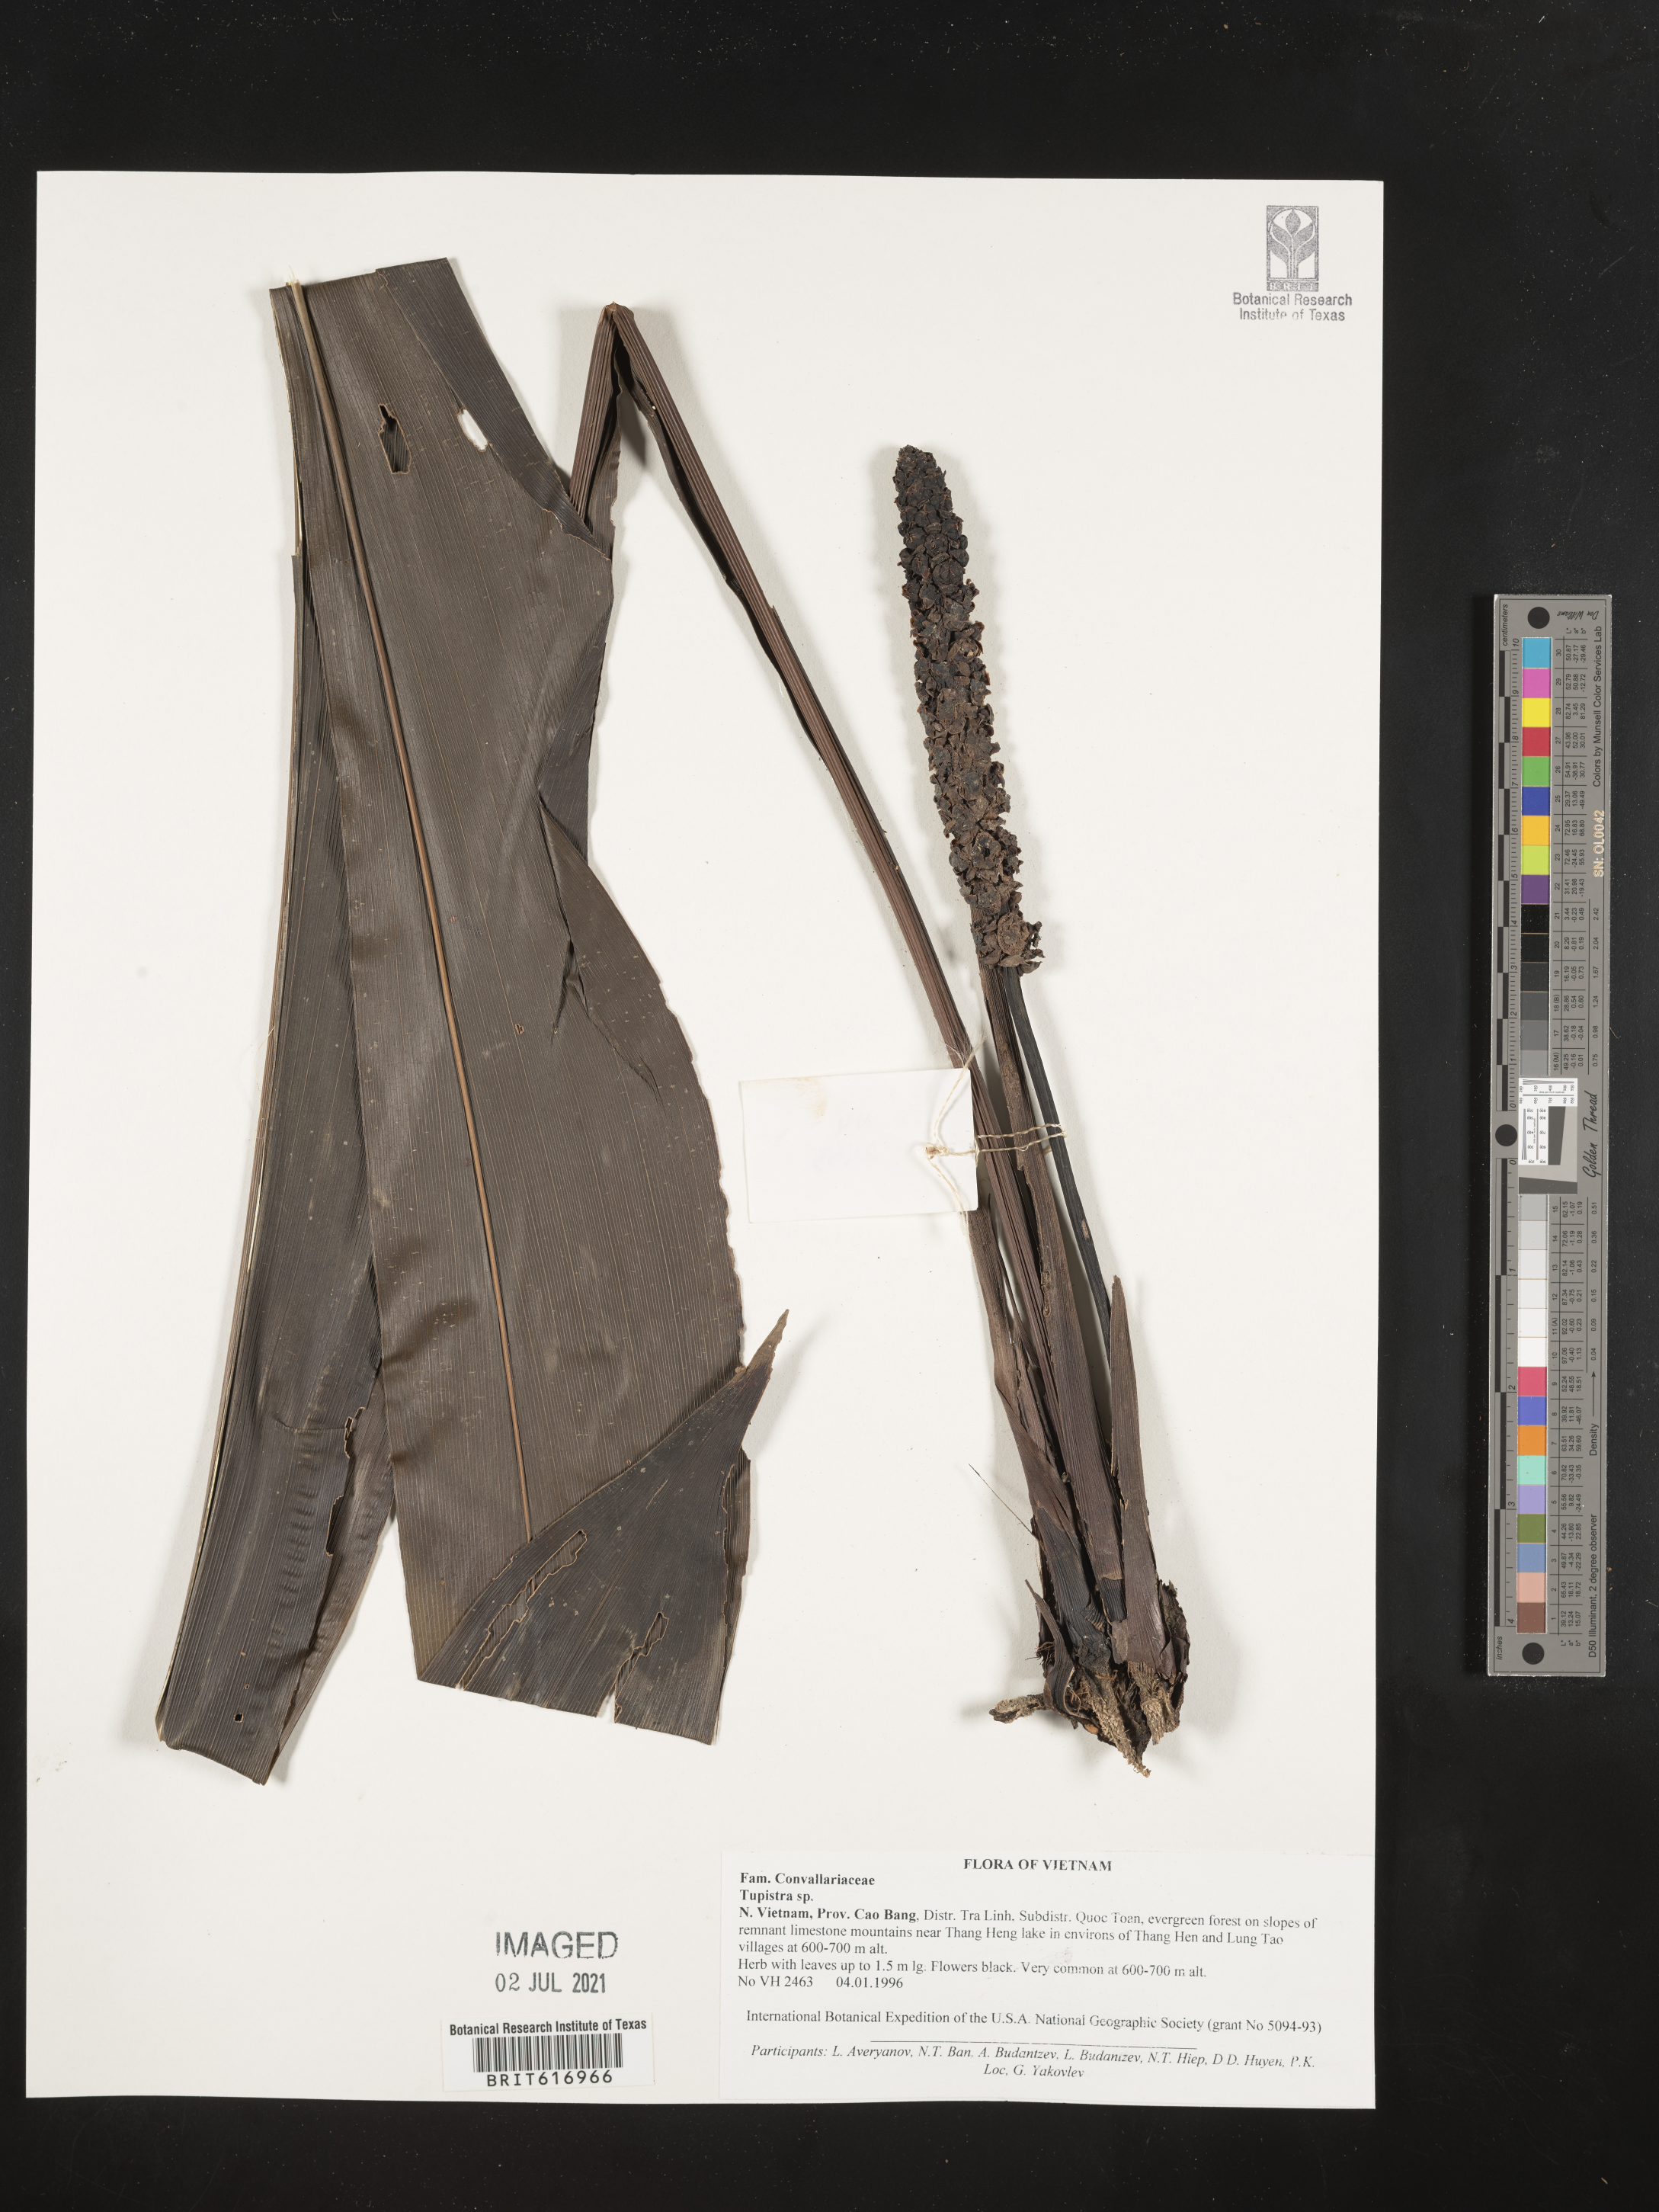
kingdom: Plantae
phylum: Tracheophyta
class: Liliopsida
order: Asparagales
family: Asparagaceae
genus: Tupistra
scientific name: Tupistra
